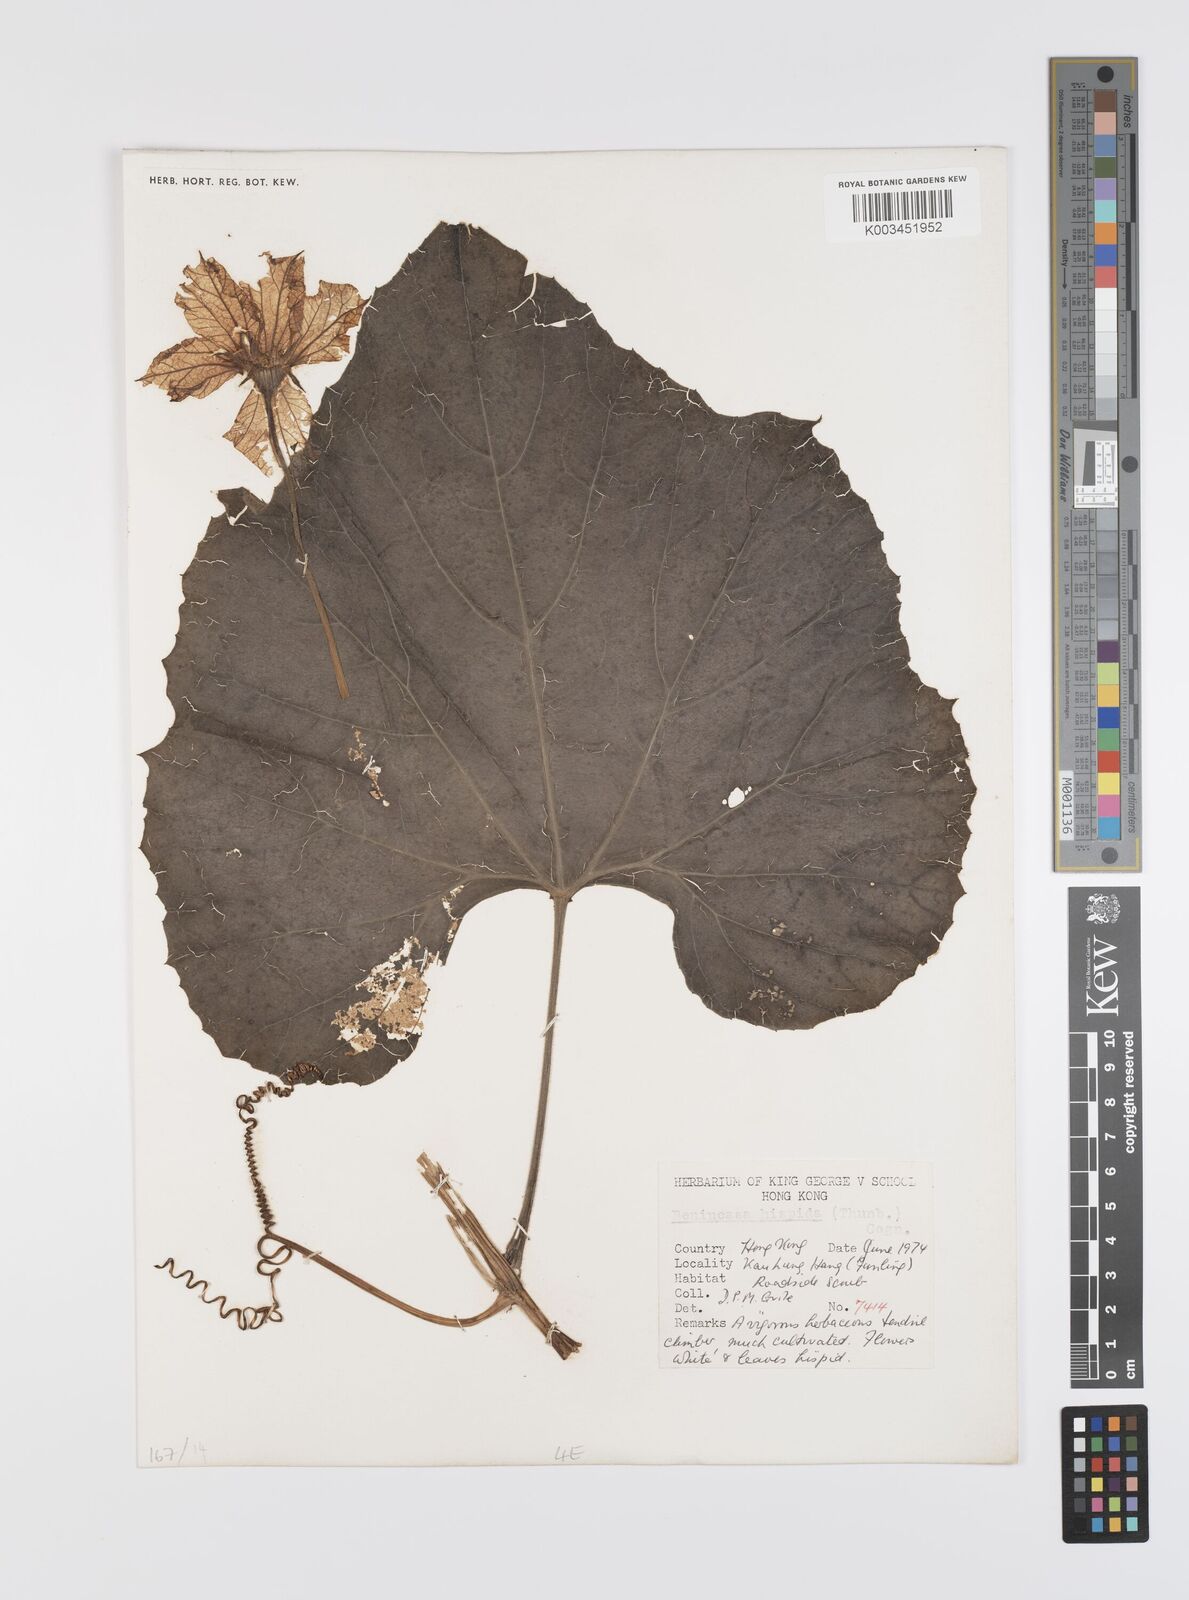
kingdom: Plantae
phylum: Tracheophyta
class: Magnoliopsida
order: Cucurbitales
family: Cucurbitaceae
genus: Benincasa
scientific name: Benincasa hispida
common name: Chinese-watermelon
